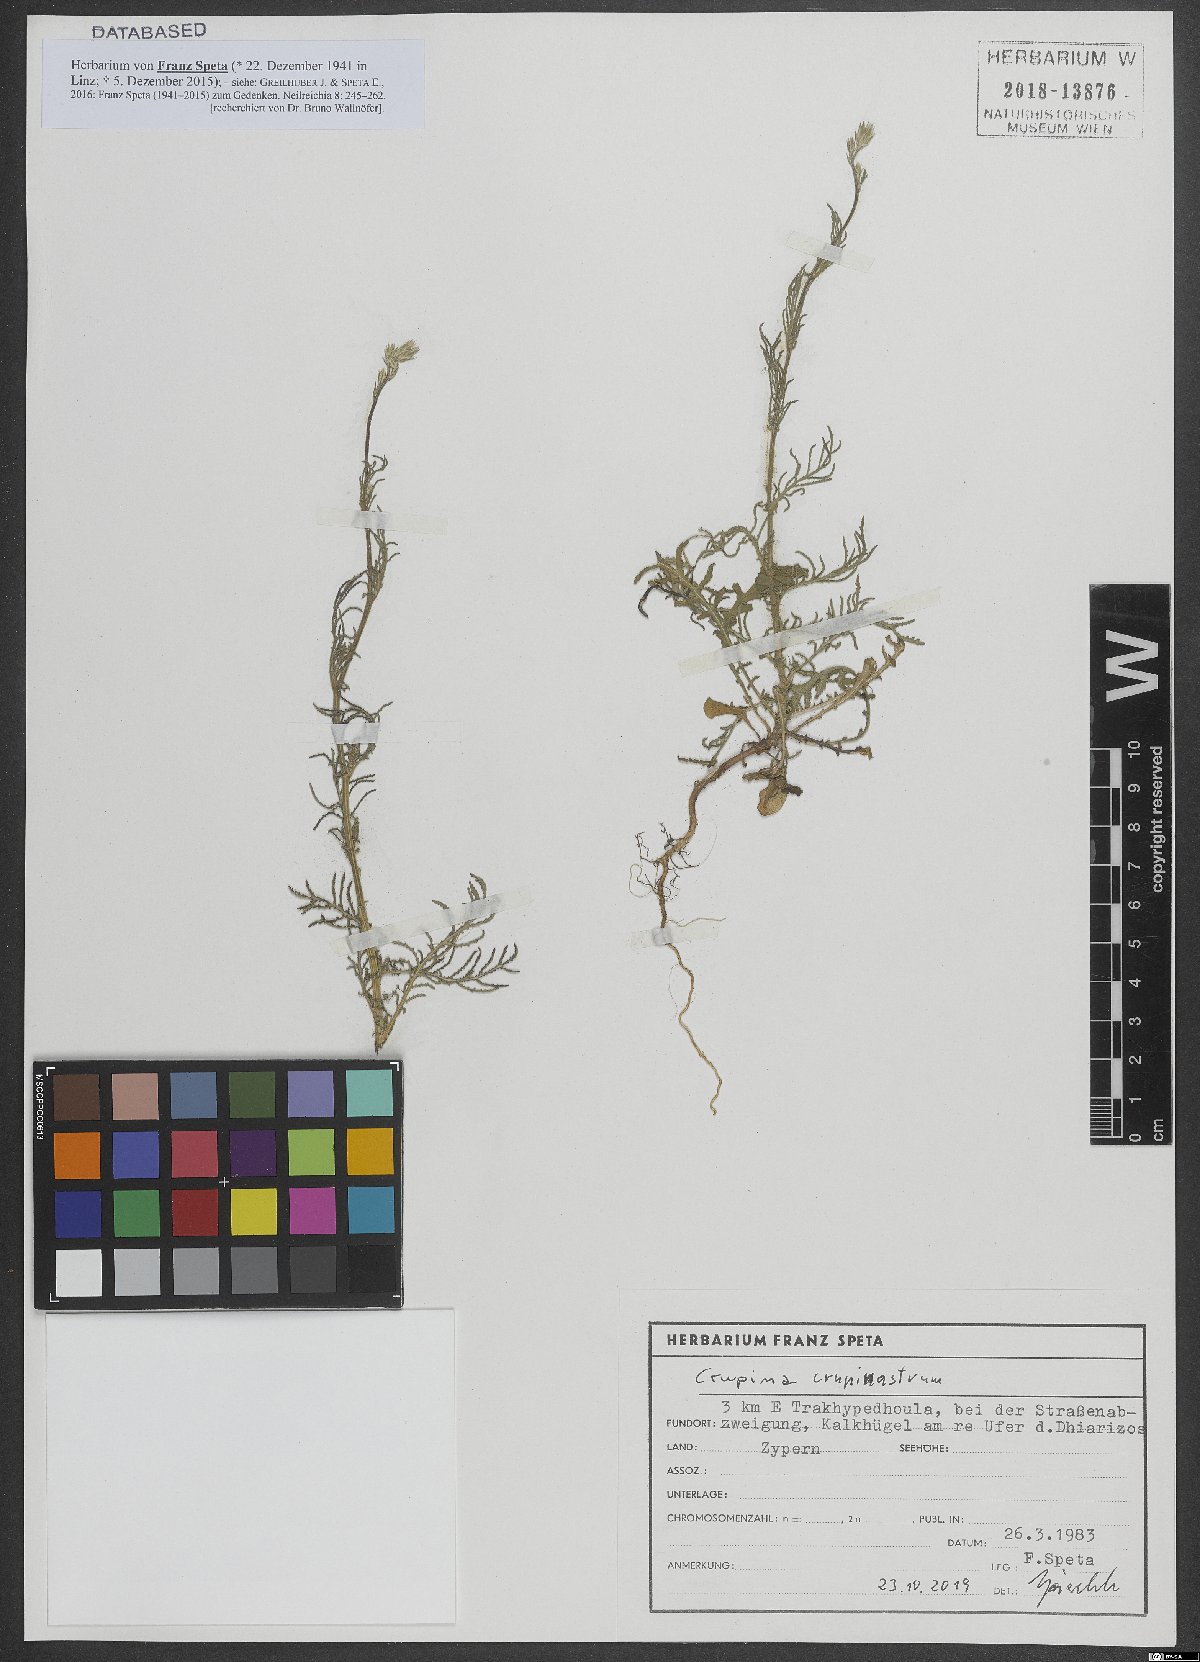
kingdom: Plantae
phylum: Tracheophyta
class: Magnoliopsida
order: Asterales
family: Asteraceae
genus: Crupina
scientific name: Crupina crupinastrum
